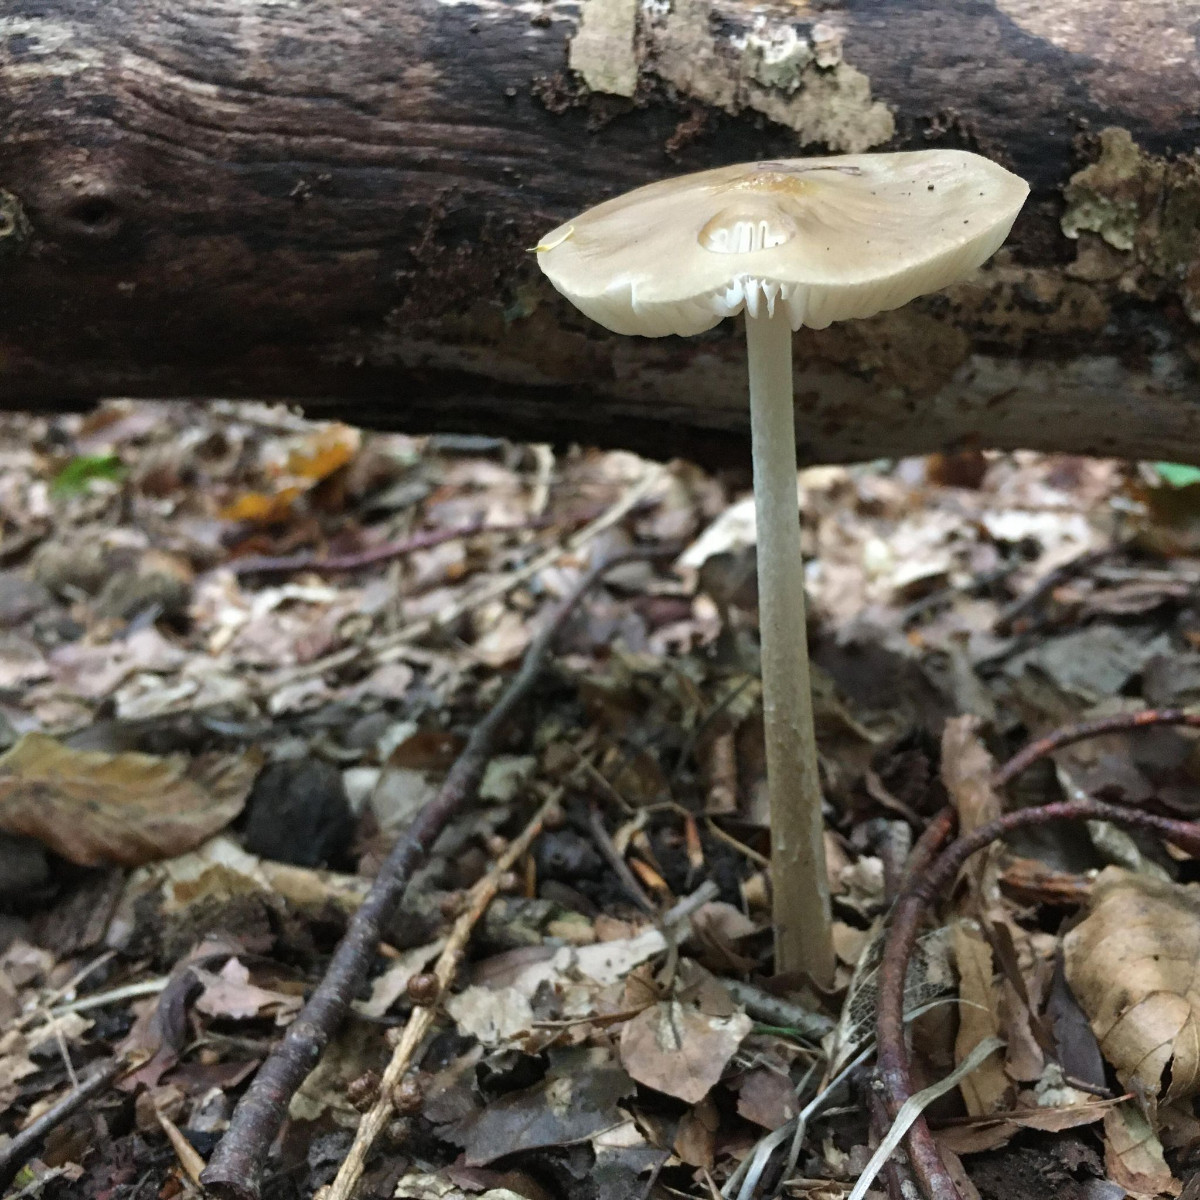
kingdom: Fungi
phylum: Basidiomycota
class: Agaricomycetes
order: Agaricales
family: Physalacriaceae
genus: Hymenopellis
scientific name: Hymenopellis radicata
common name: almindelig pælerodshat
